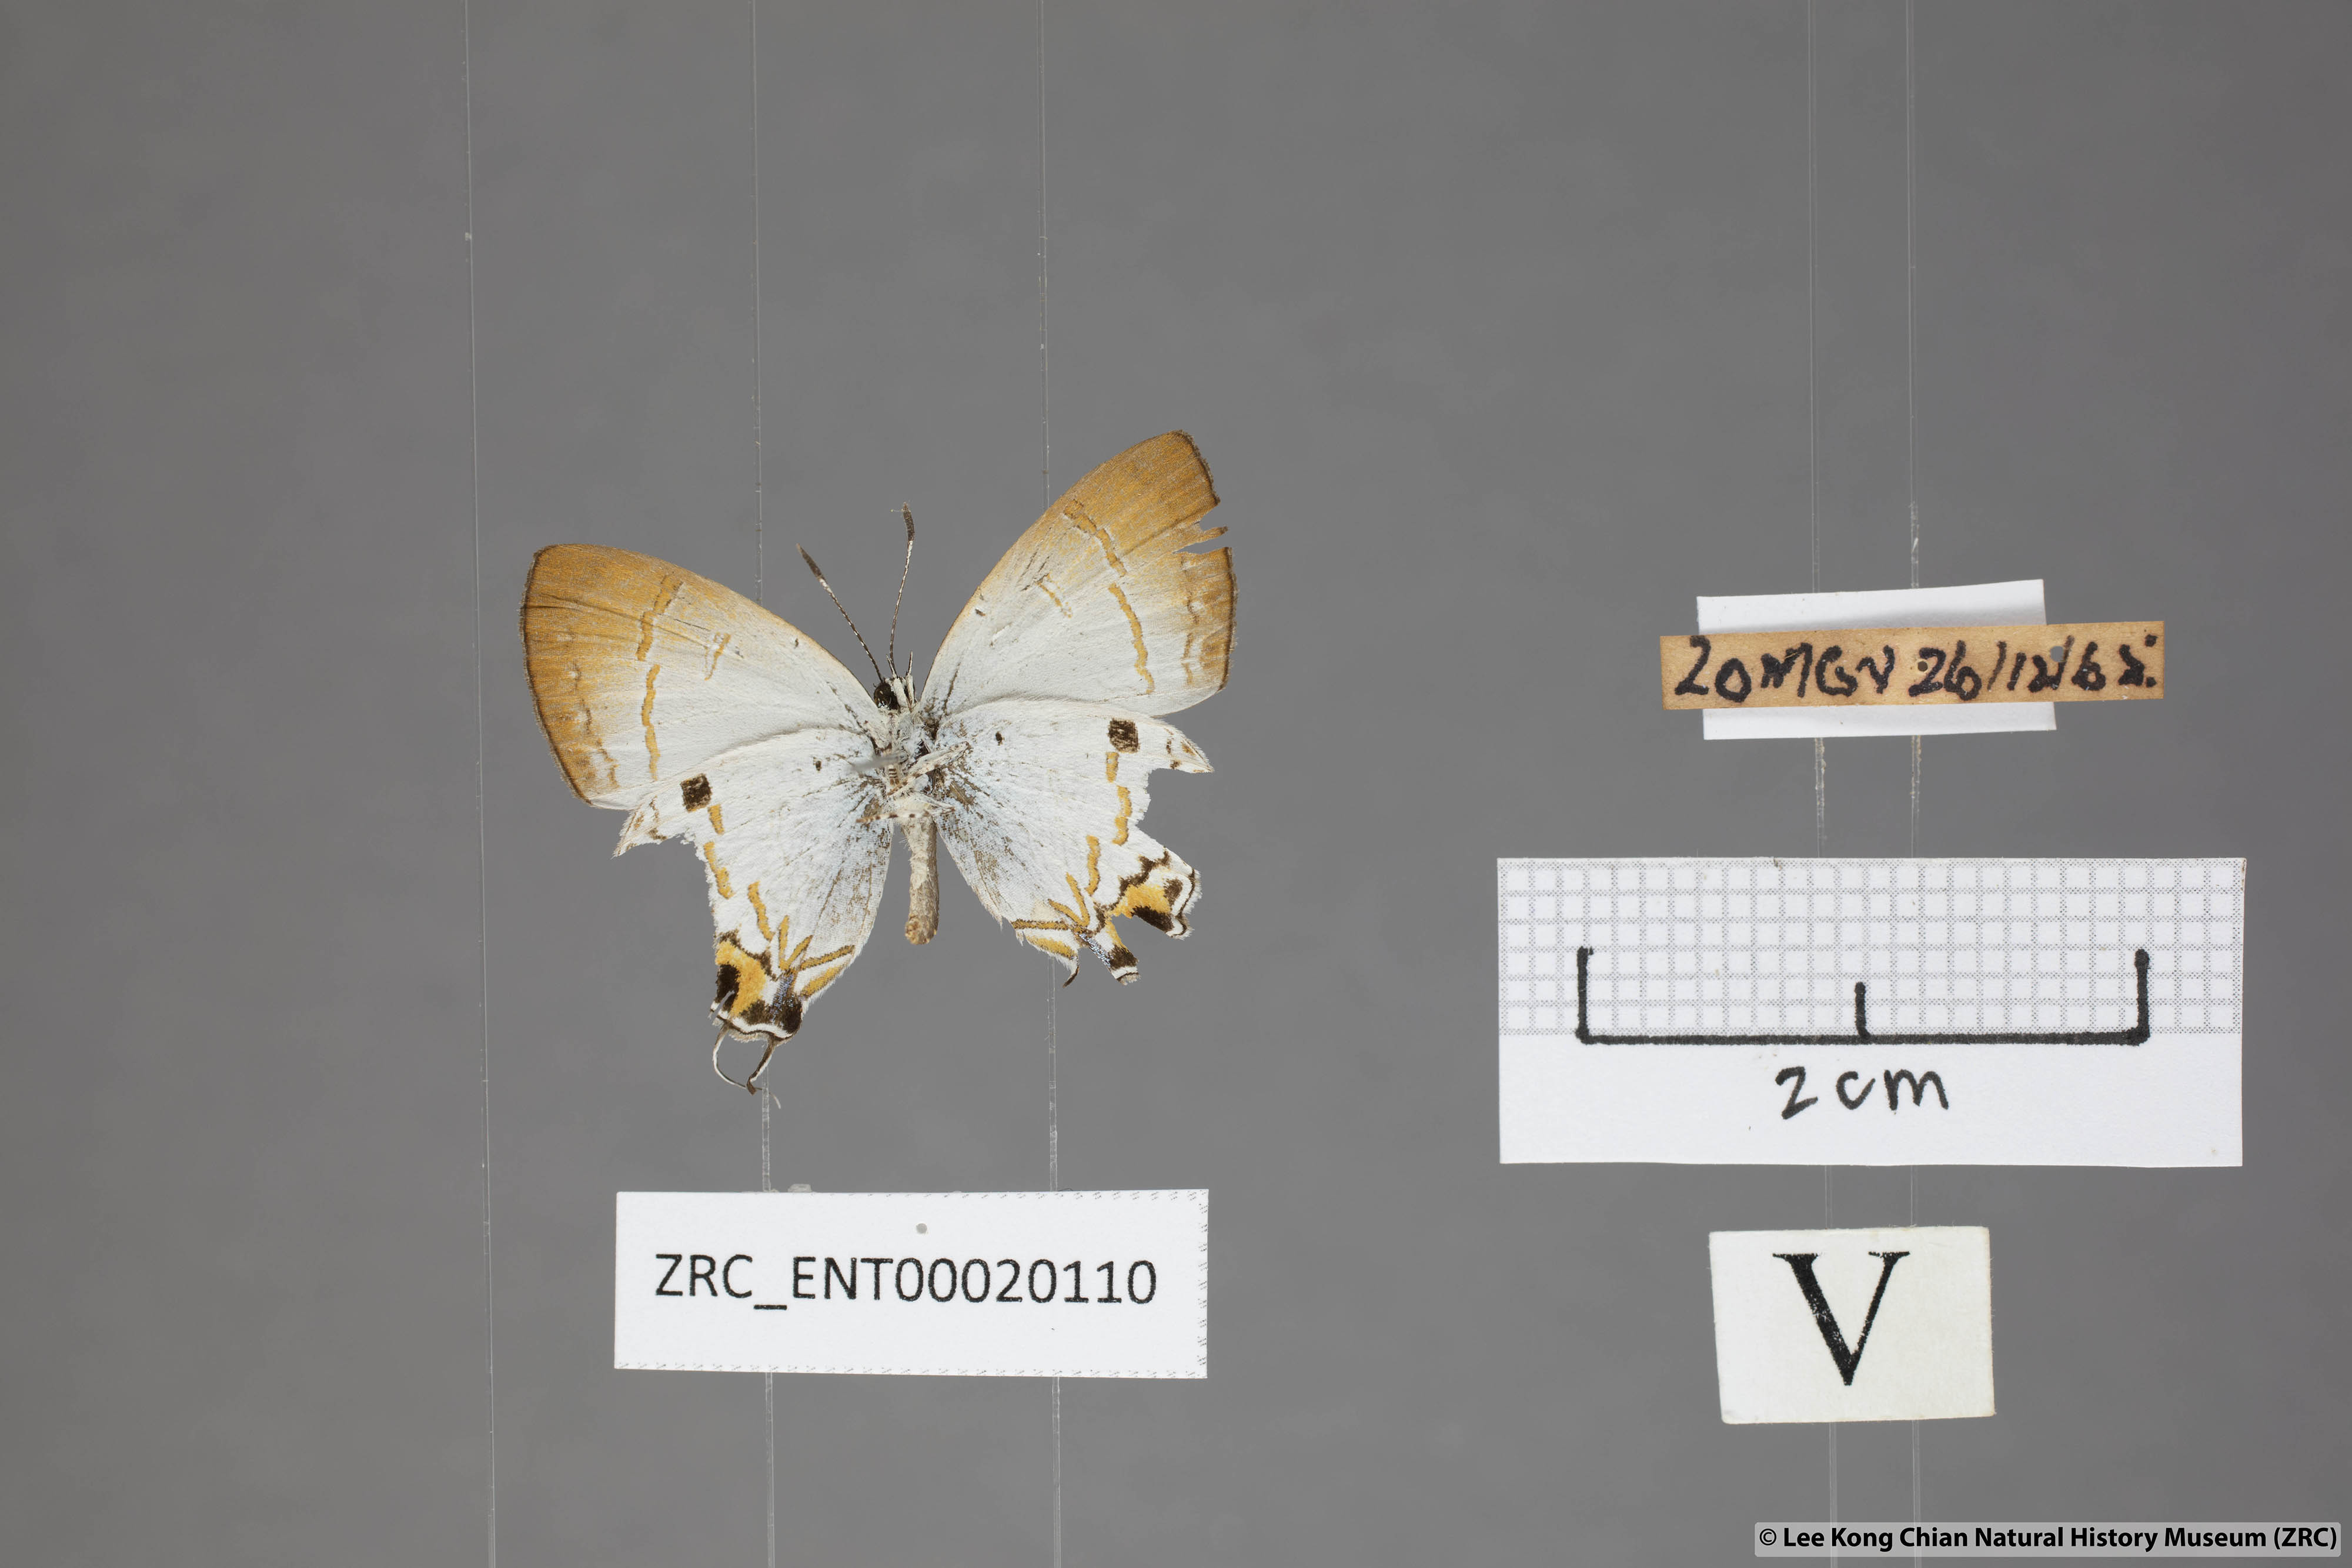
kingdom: Animalia
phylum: Arthropoda
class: Insecta
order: Lepidoptera
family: Lycaenidae
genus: Chliaria
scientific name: Chliaria othona
